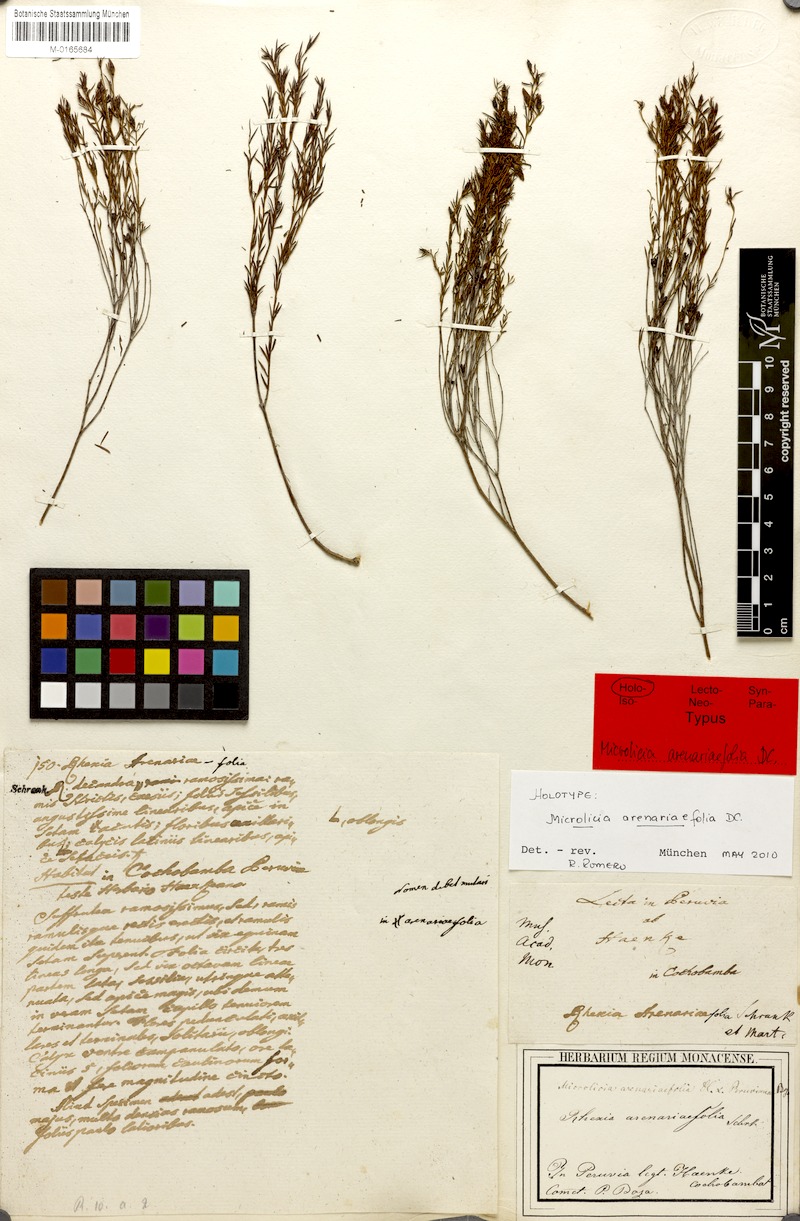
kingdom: Plantae
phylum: Tracheophyta
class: Magnoliopsida
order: Myrtales
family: Melastomataceae
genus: Microlicia
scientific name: Microlicia arenariifolia
